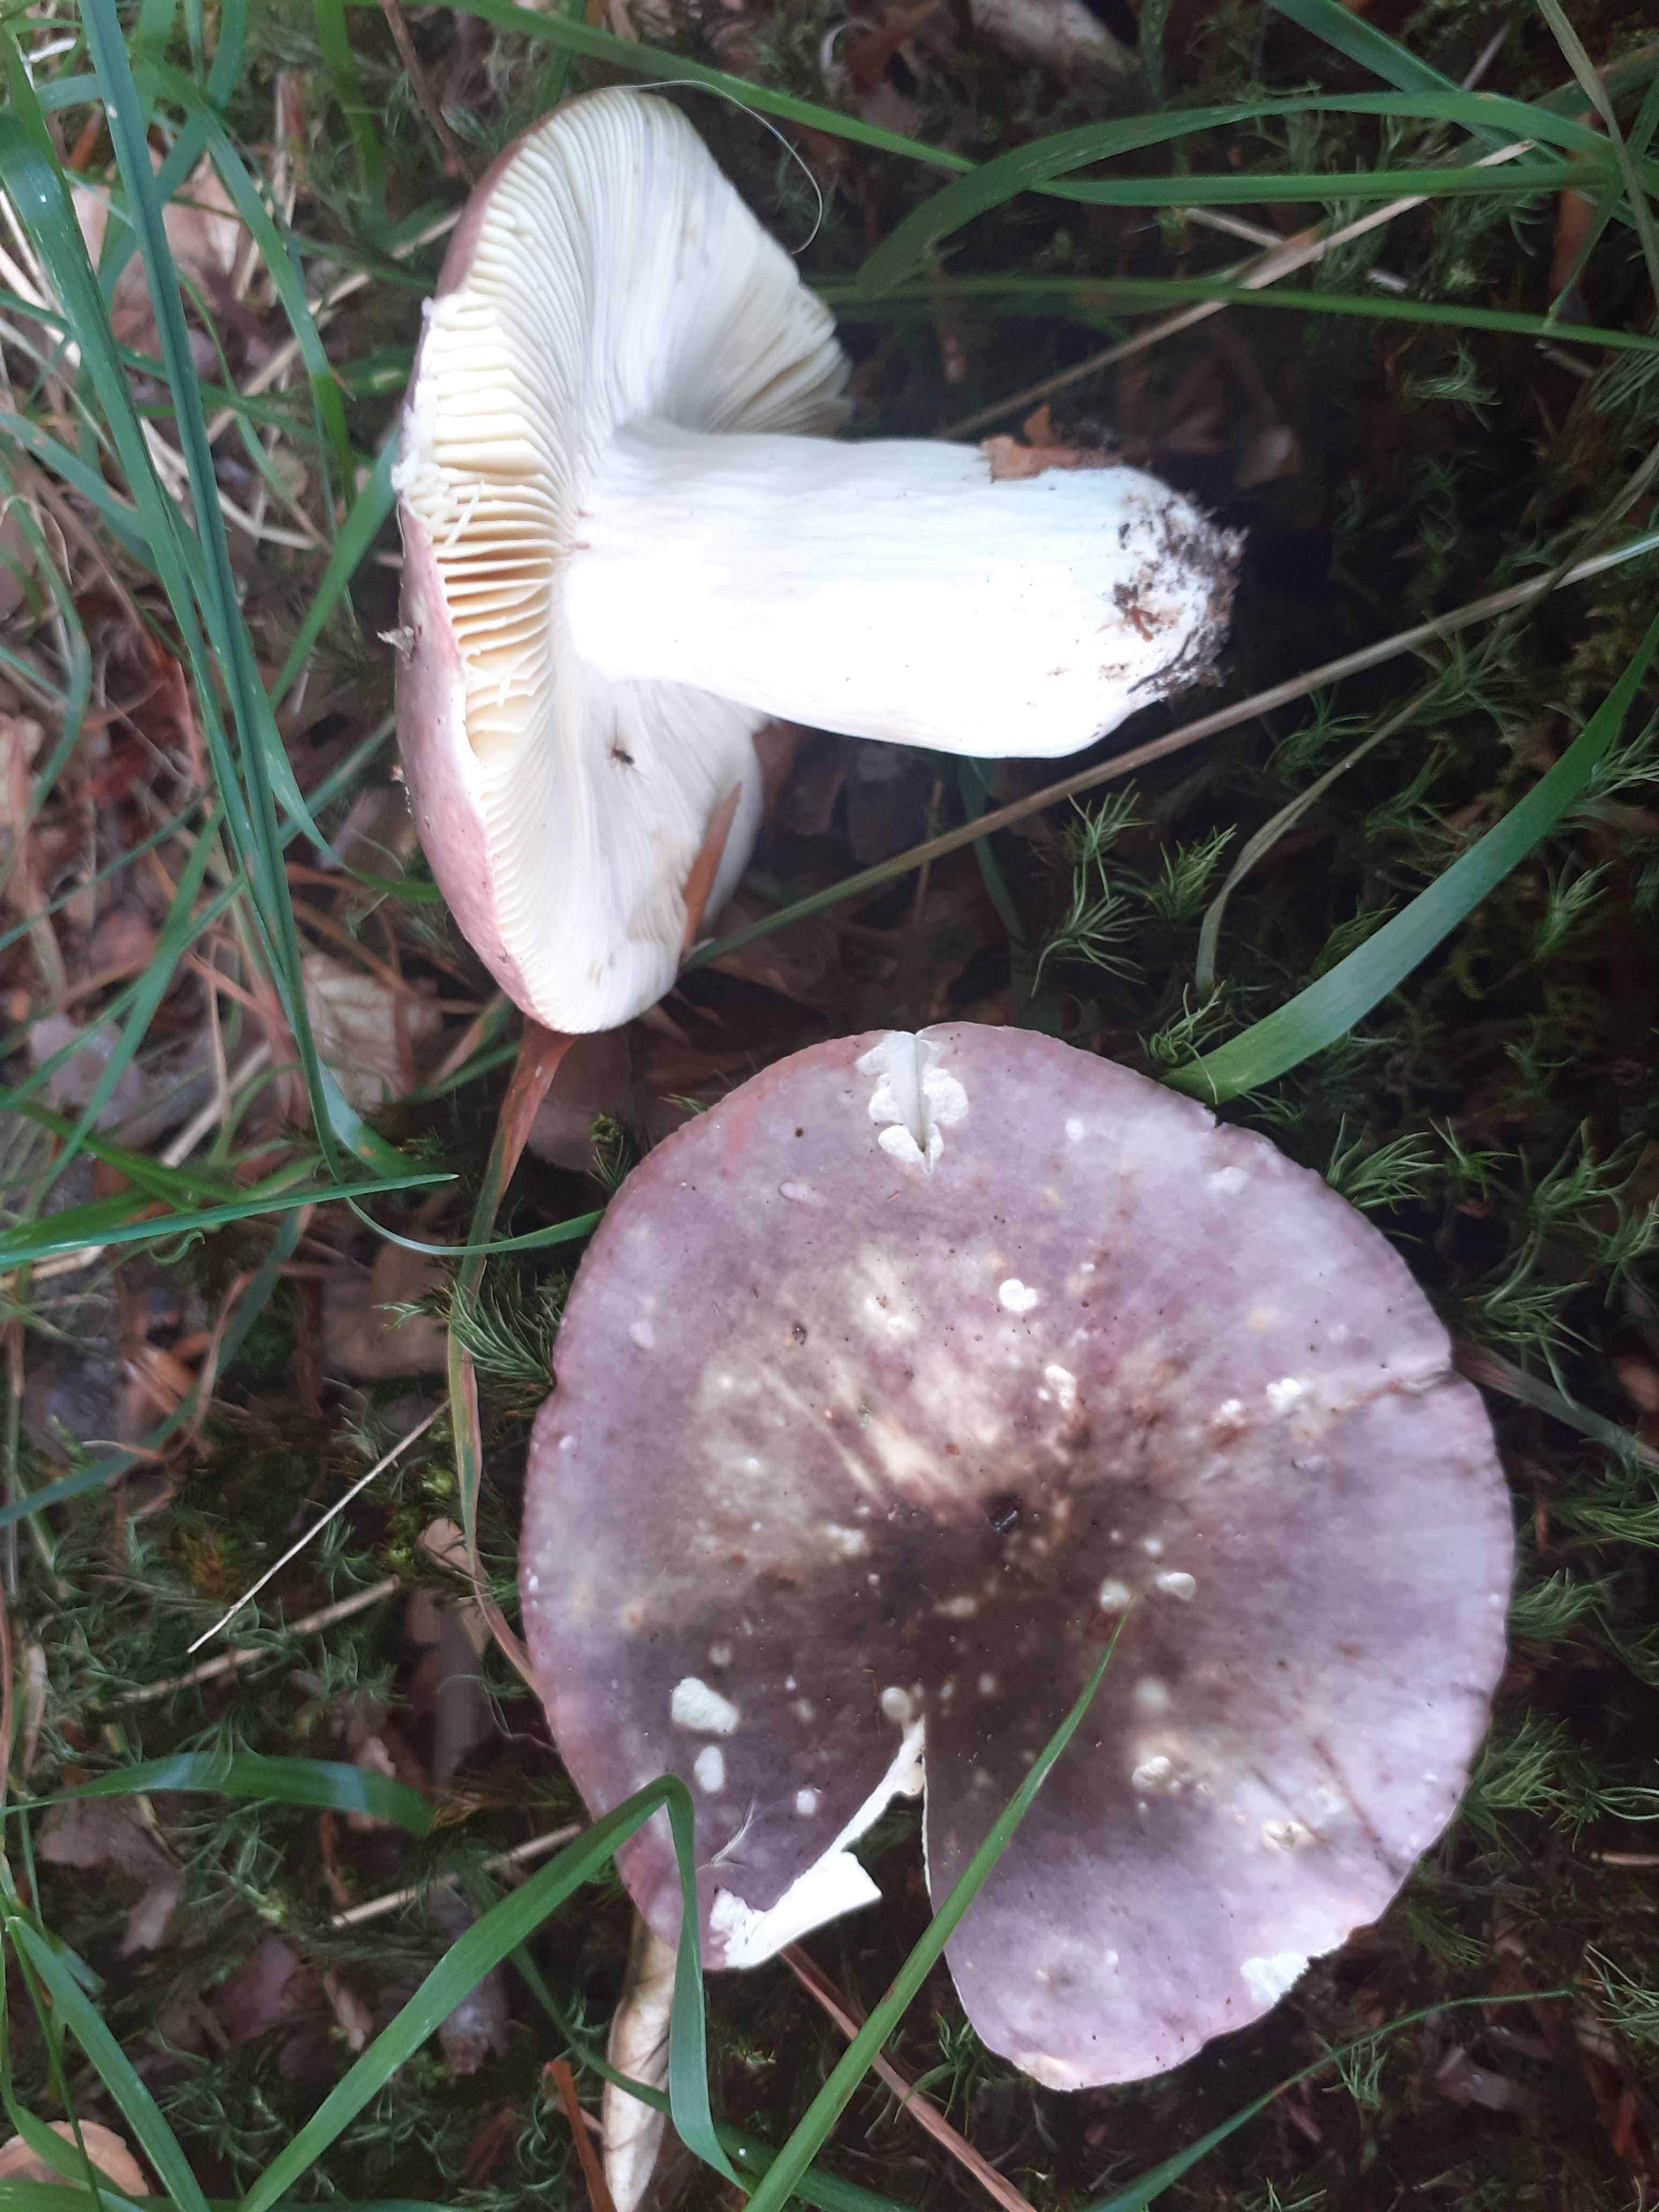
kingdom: Fungi
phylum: Basidiomycota
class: Agaricomycetes
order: Russulales
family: Russulaceae
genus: Russula
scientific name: Russula romellii
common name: romells skørhat
